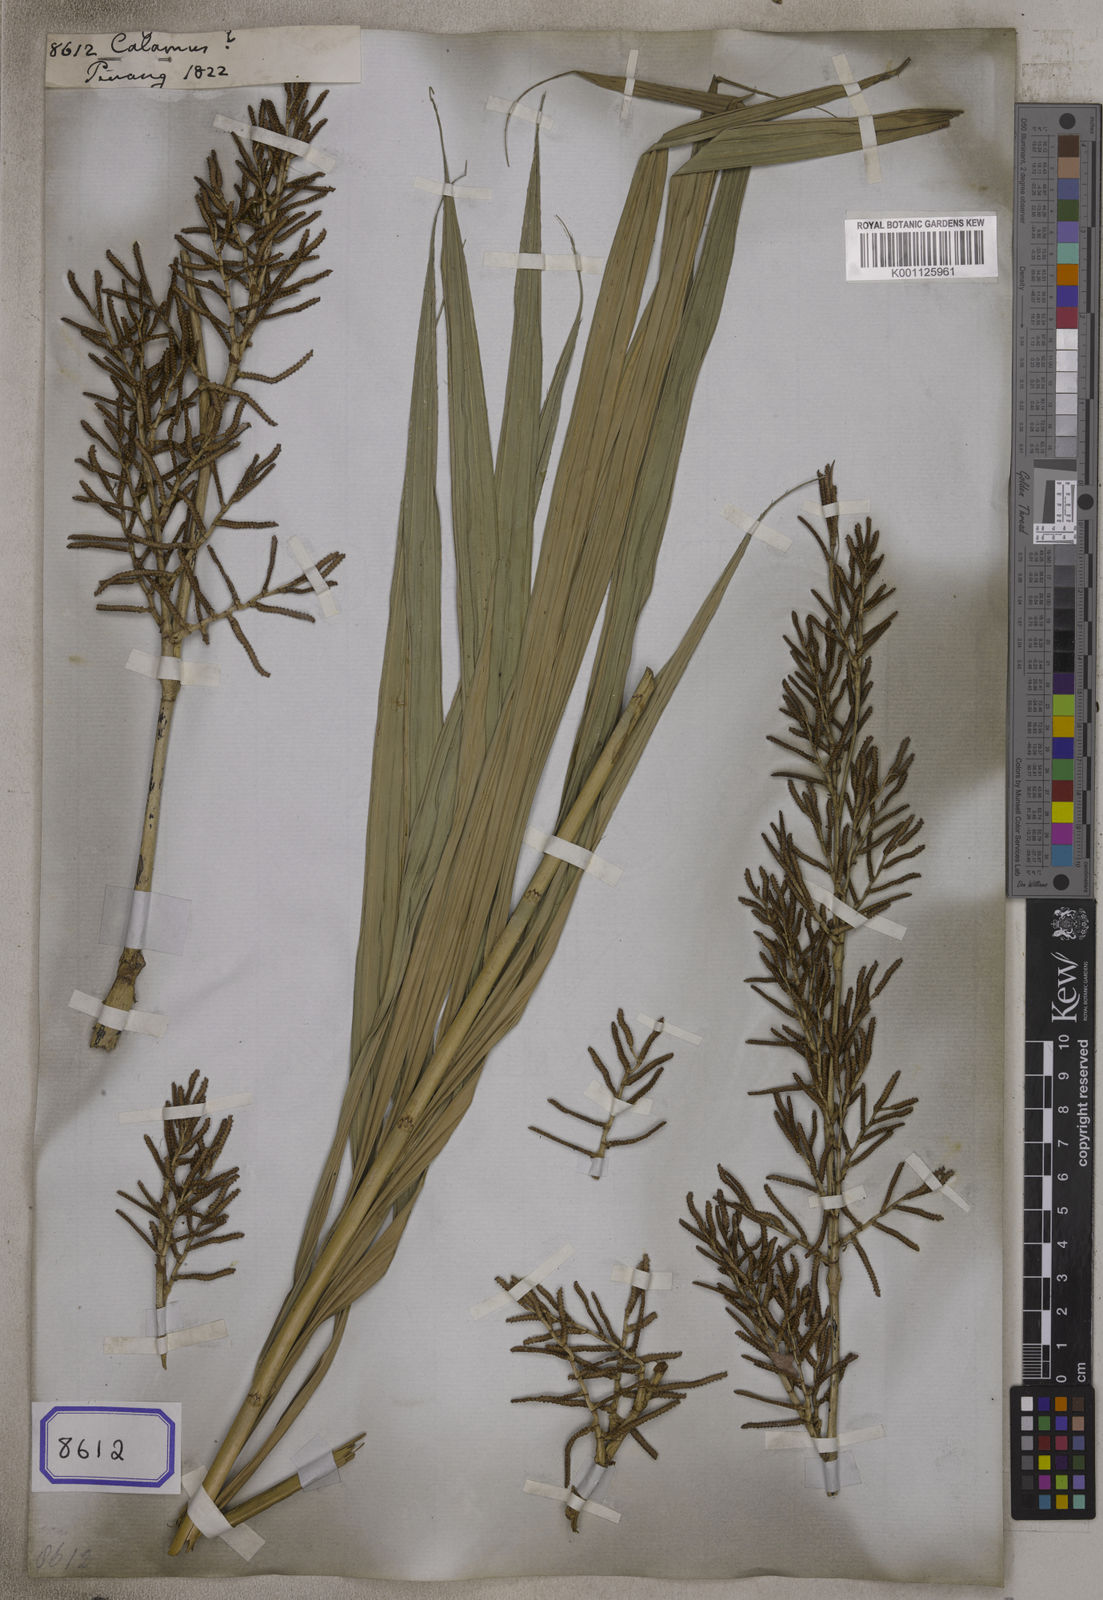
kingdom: Plantae
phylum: Tracheophyta
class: Liliopsida
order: Arecales
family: Arecaceae
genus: Calamus
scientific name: Calamus
